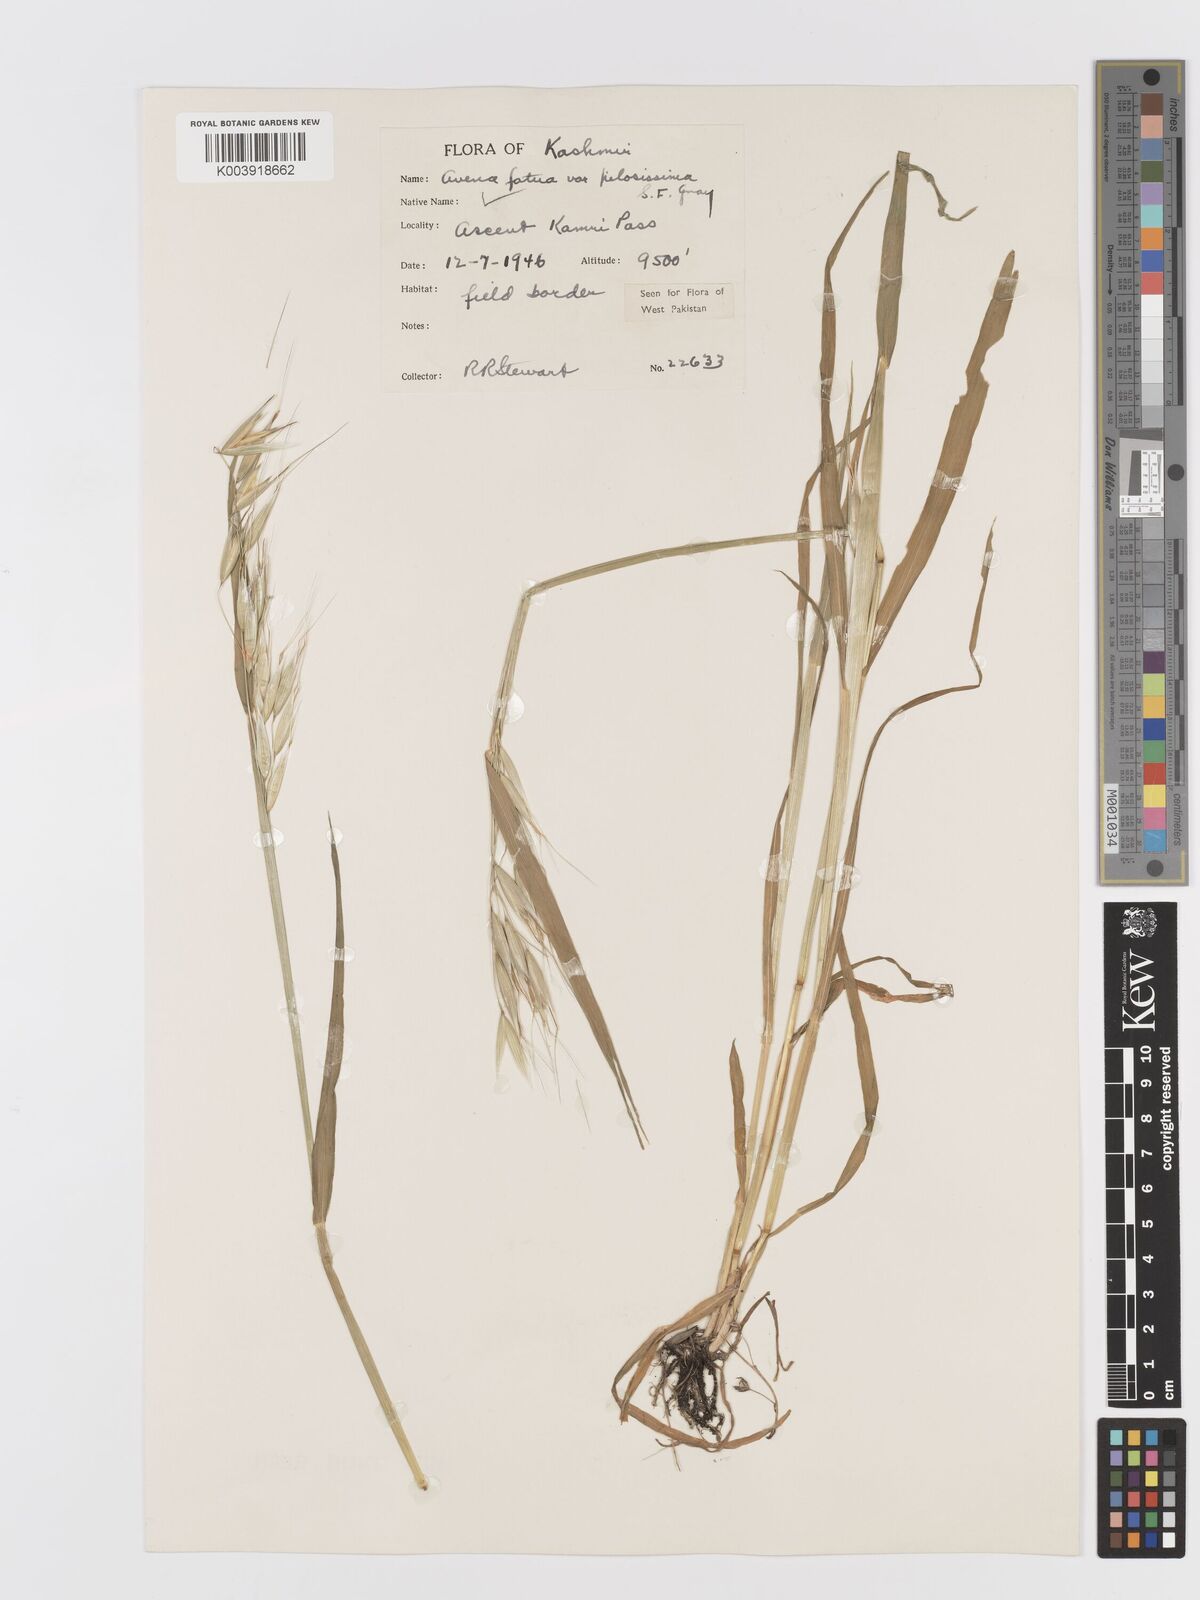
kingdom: Plantae
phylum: Tracheophyta
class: Liliopsida
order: Poales
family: Poaceae
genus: Avena
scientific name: Avena fatua
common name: Wild oat
